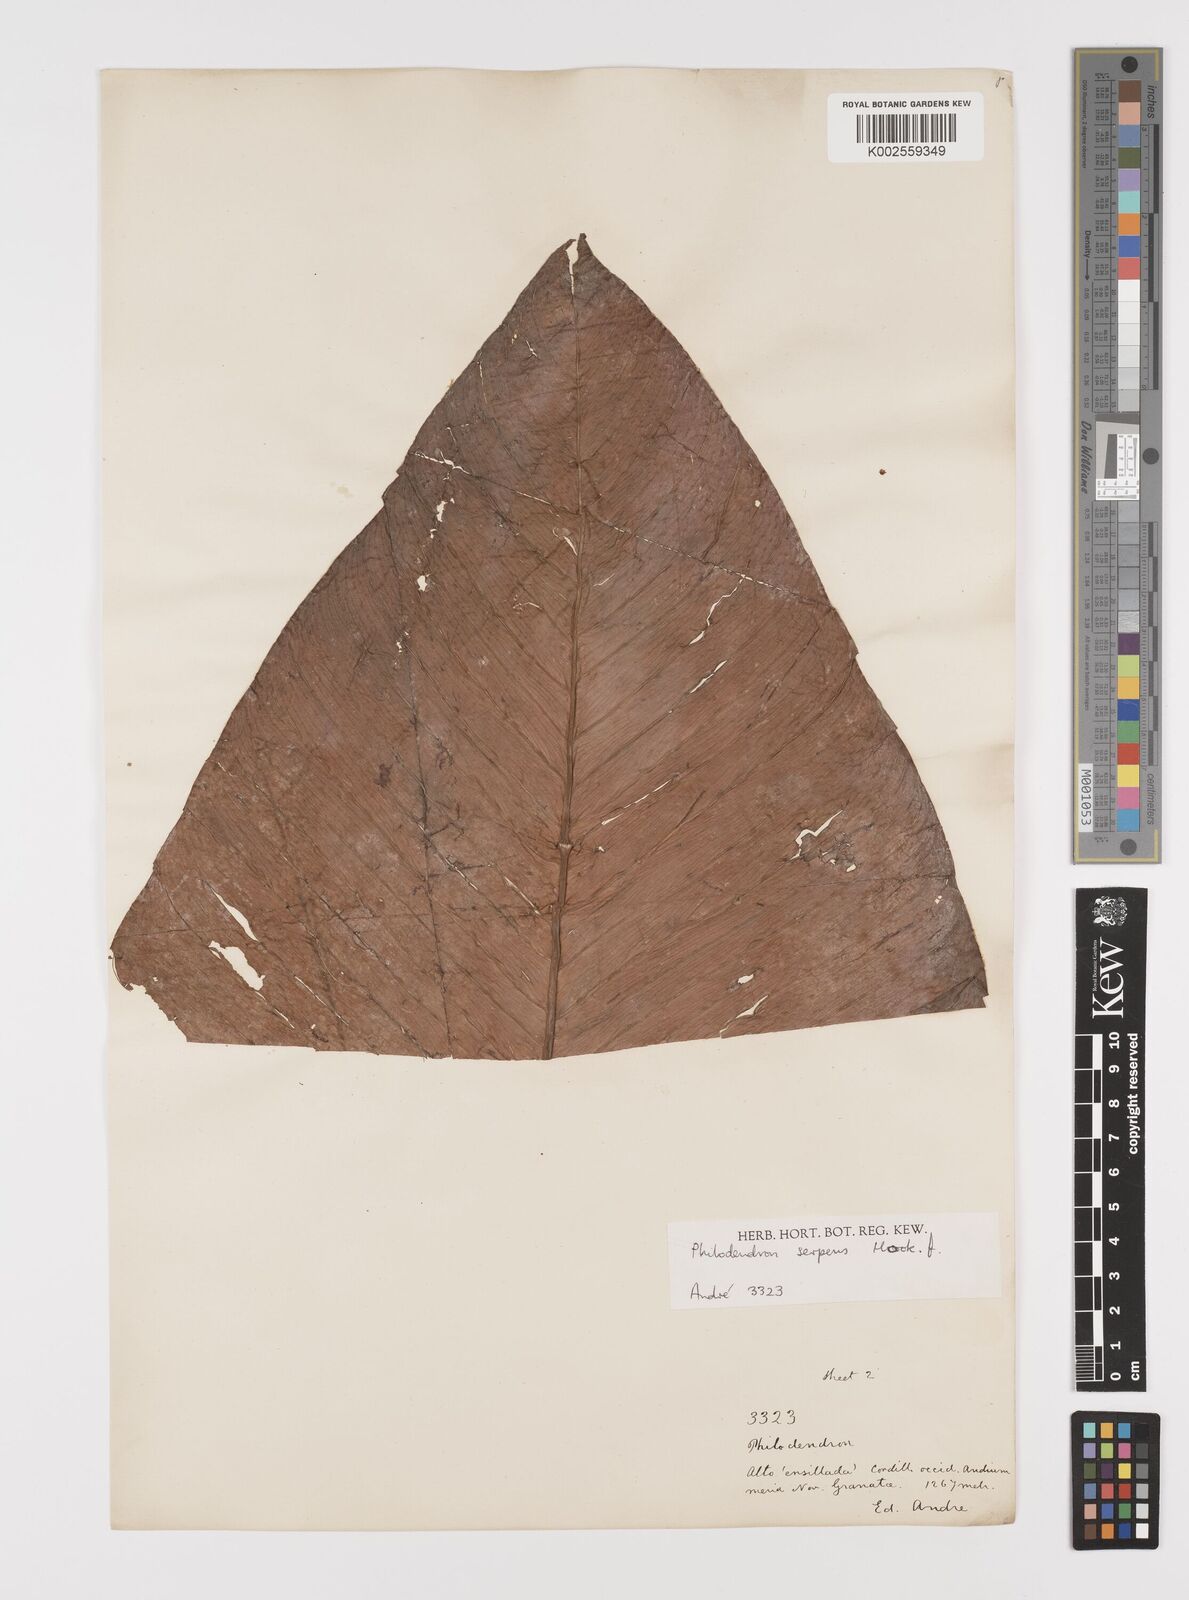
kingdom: Plantae
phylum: Tracheophyta
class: Liliopsida
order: Alismatales
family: Araceae
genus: Philodendron
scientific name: Philodendron serpens
